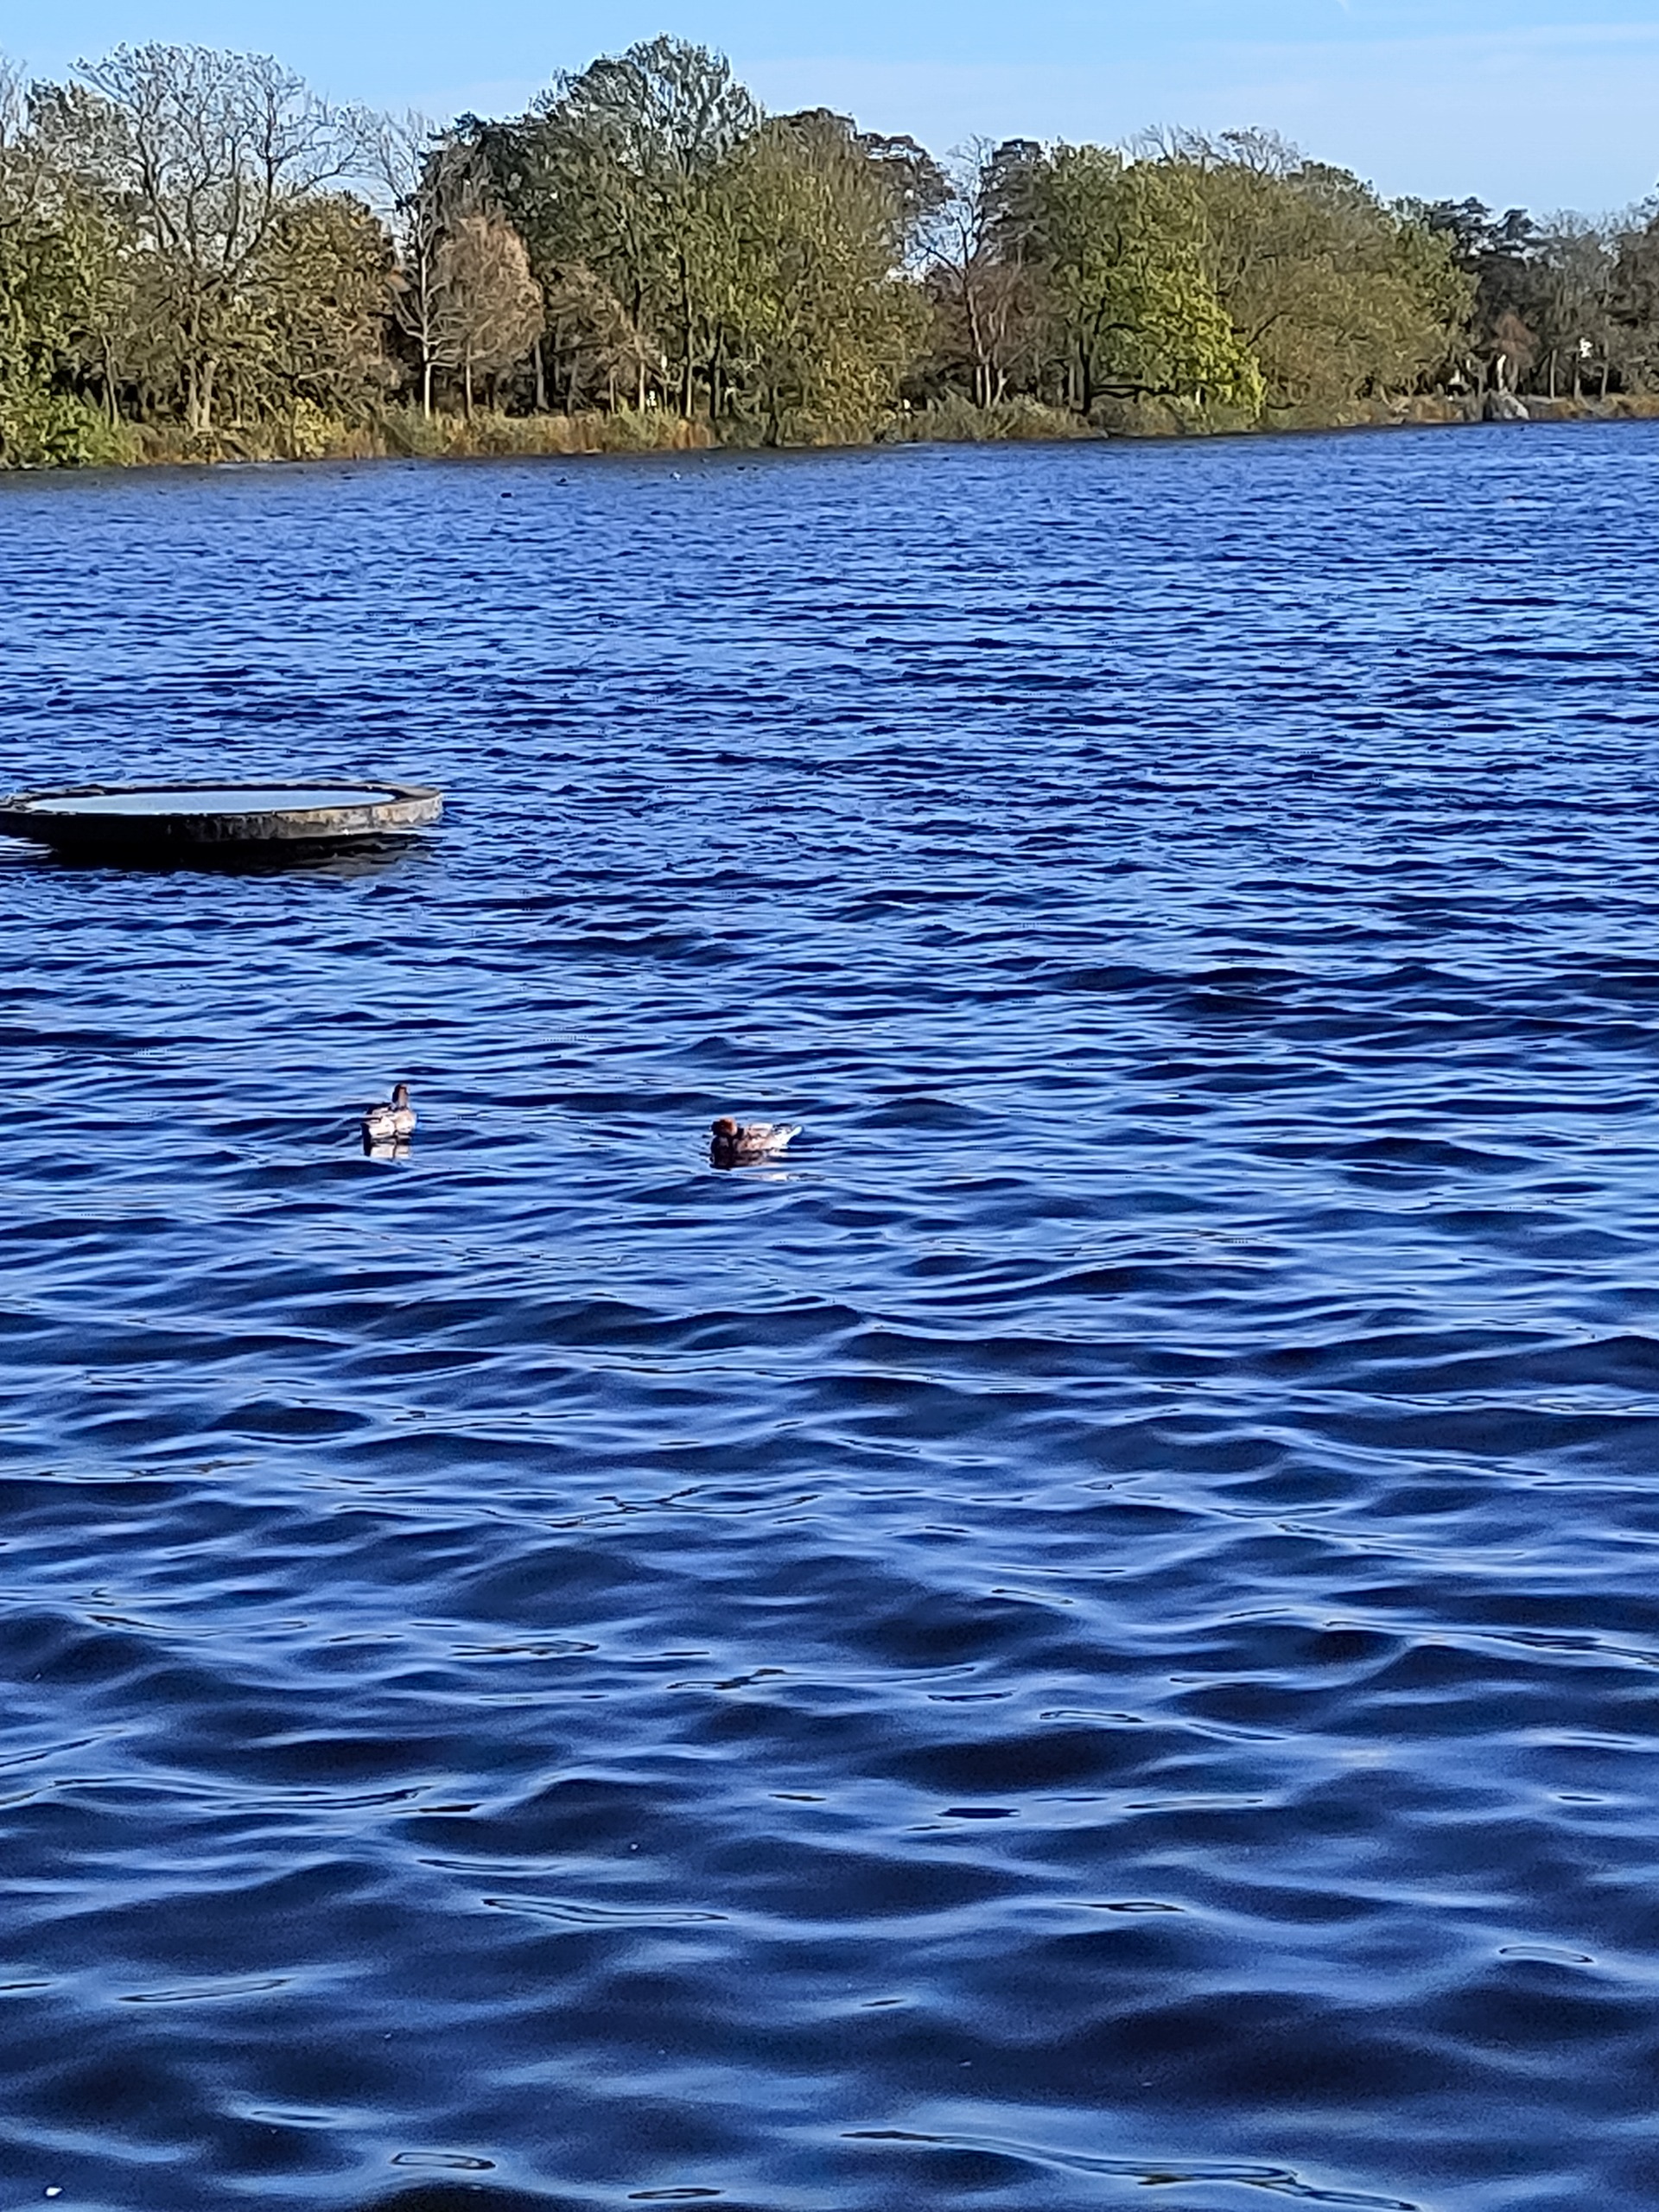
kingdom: Animalia
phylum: Chordata
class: Aves
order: Anseriformes
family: Anatidae
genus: Mareca
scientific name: Mareca penelope
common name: Pibeand
